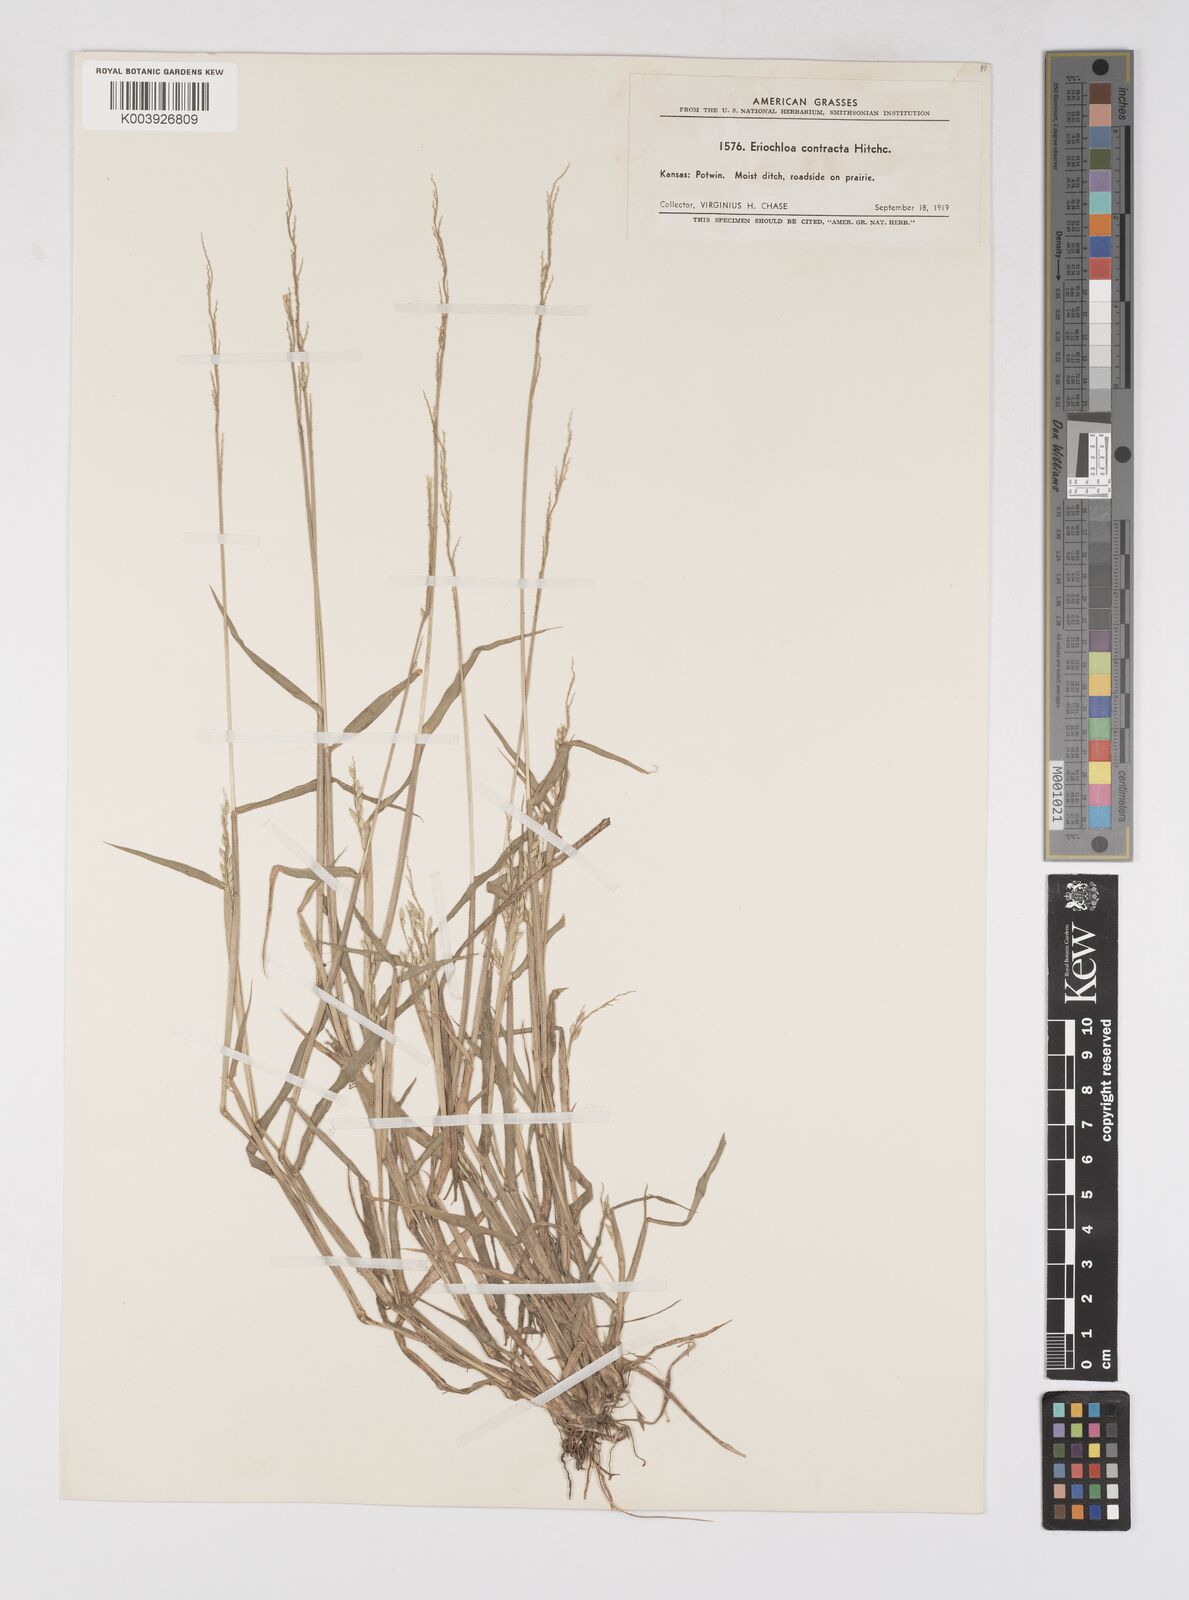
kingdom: Plantae
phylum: Tracheophyta
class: Liliopsida
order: Poales
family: Poaceae
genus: Eriochloa
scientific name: Eriochloa contracta
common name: Prairie cup grass
